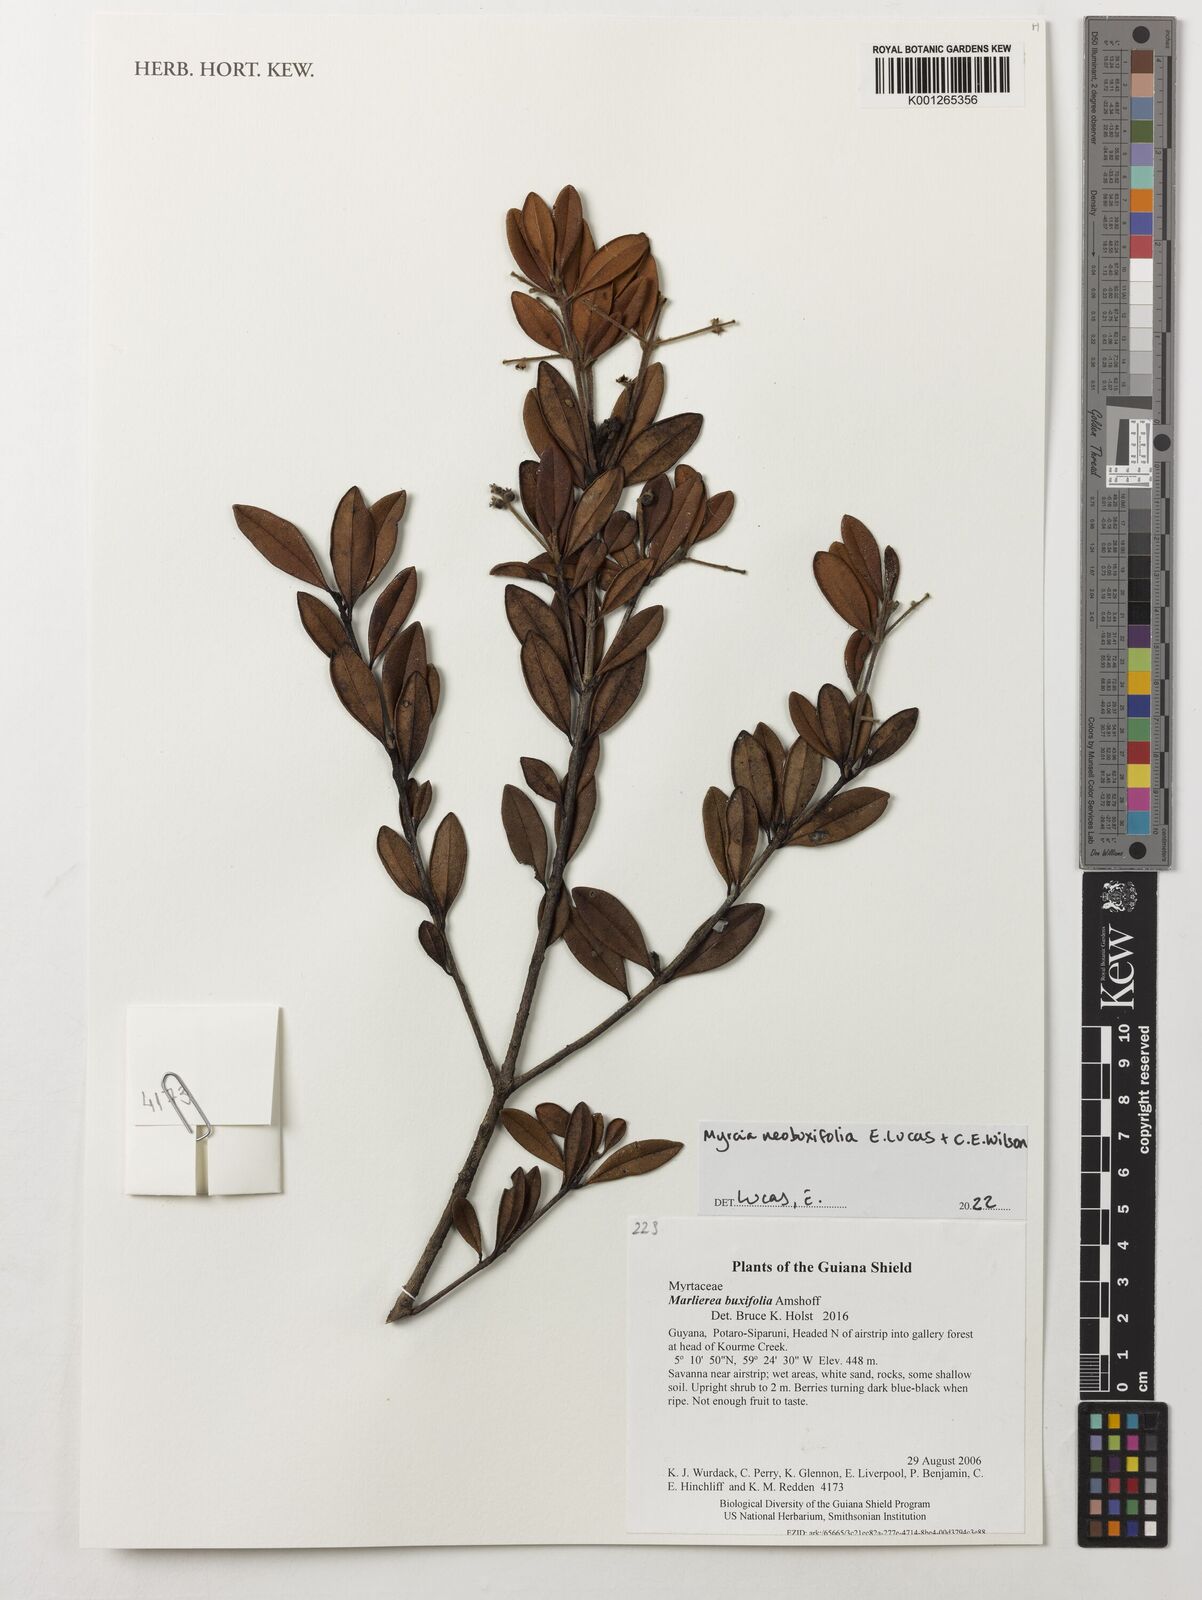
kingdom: Plantae
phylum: Tracheophyta
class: Magnoliopsida
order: Myrtales
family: Myrtaceae
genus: Myrcia
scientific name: Myrcia neobuxifolia
